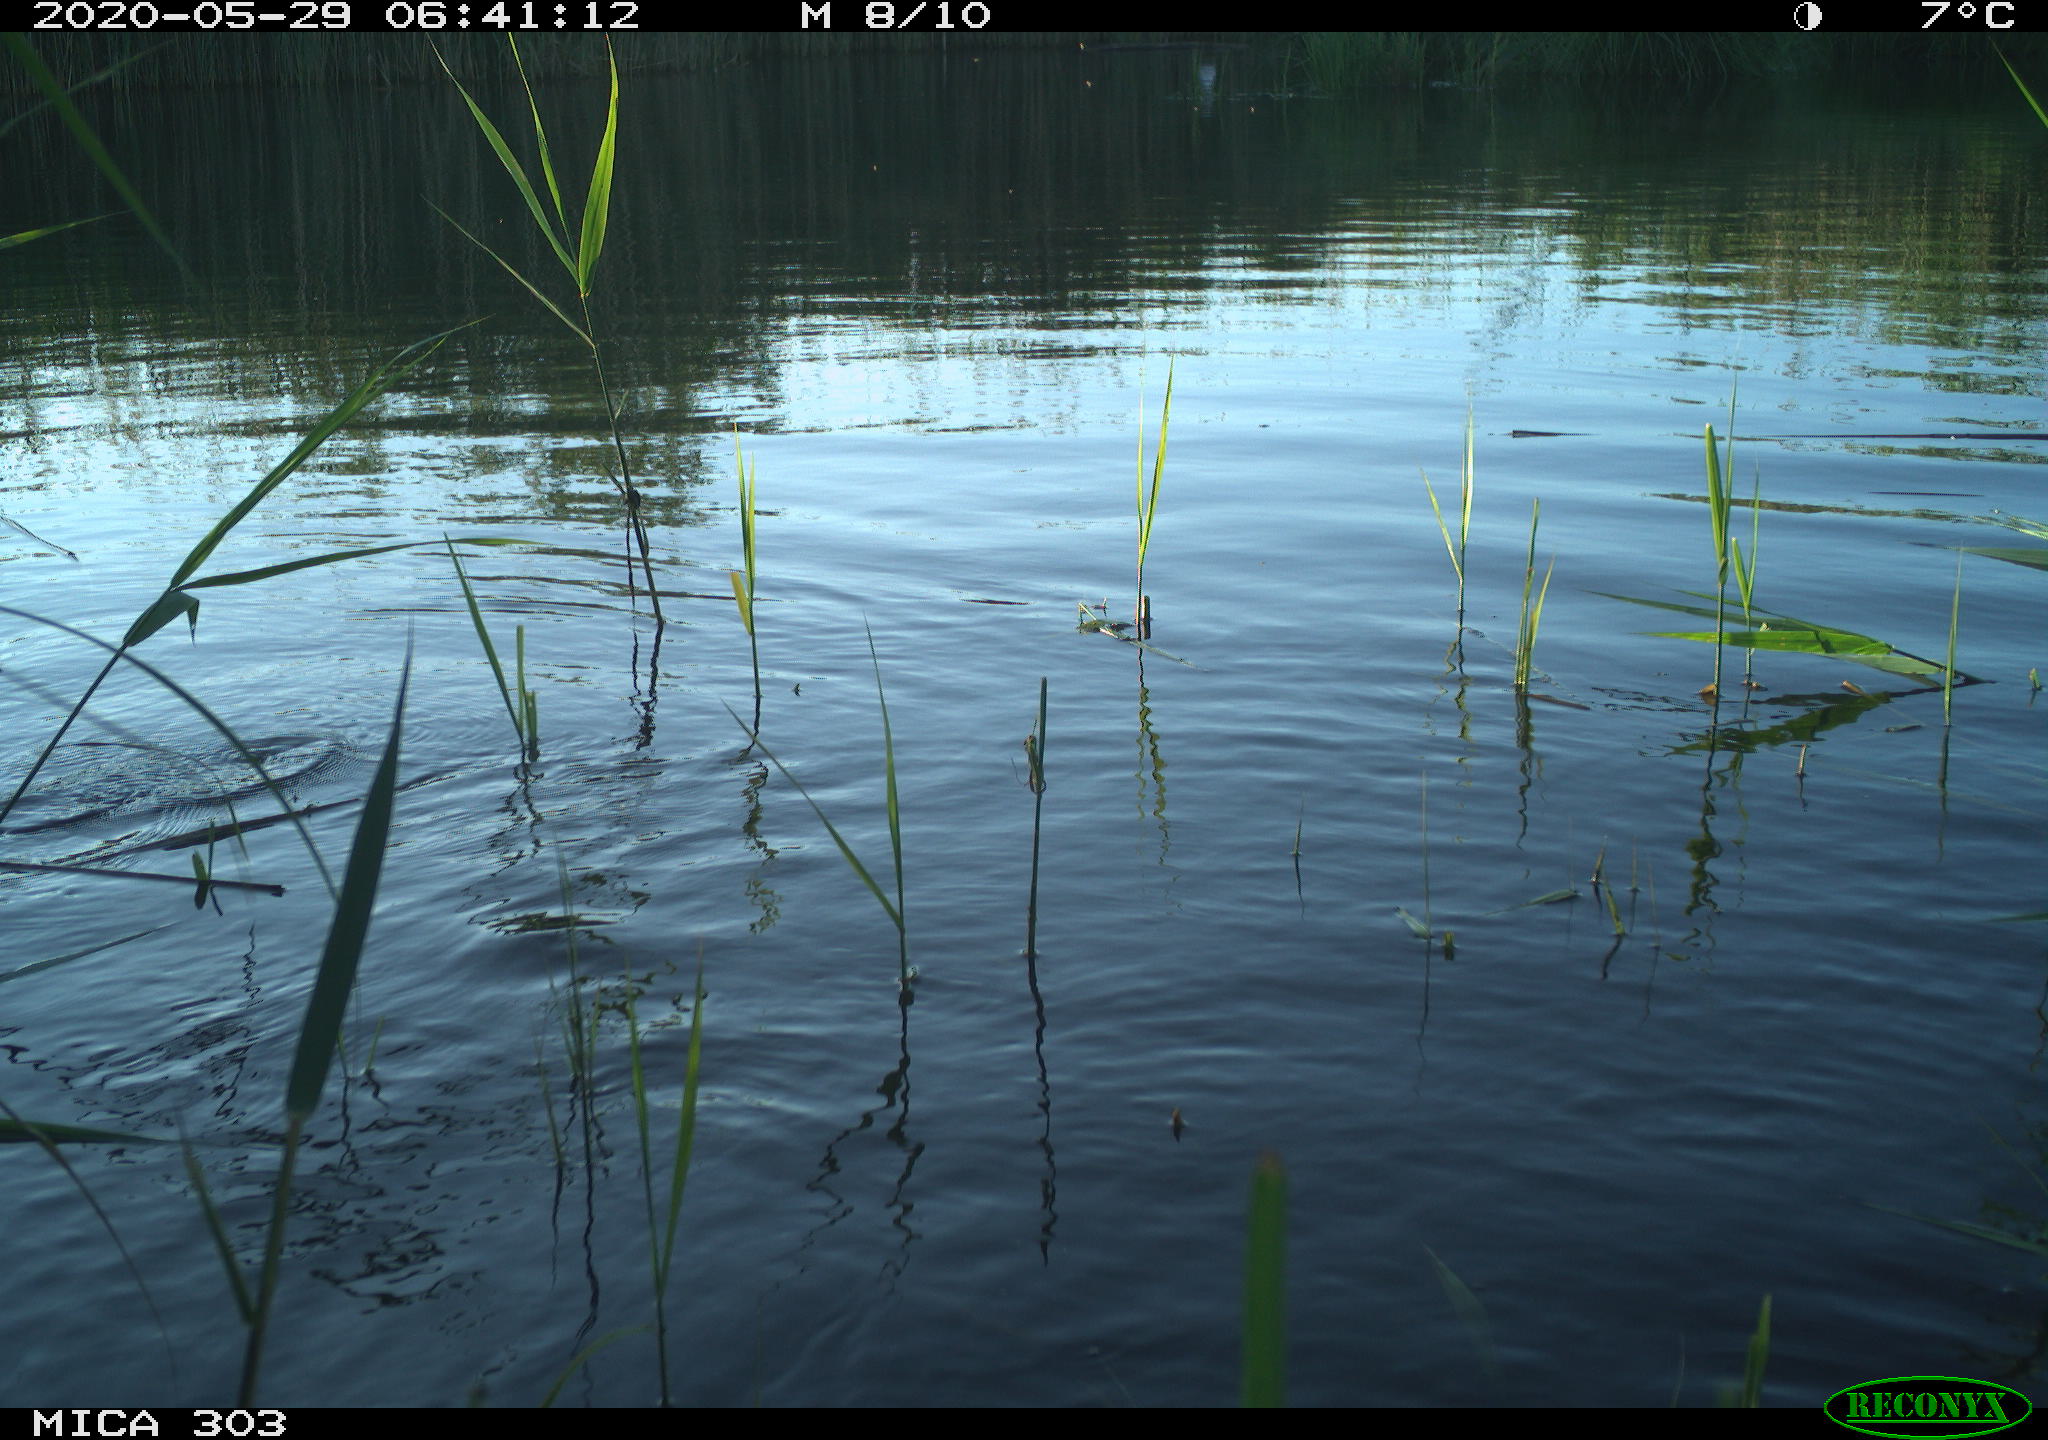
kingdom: Animalia
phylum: Chordata
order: Cypriniformes
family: Cyprinidae
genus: Cyprinus
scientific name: Cyprinus carpio
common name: Common carp
